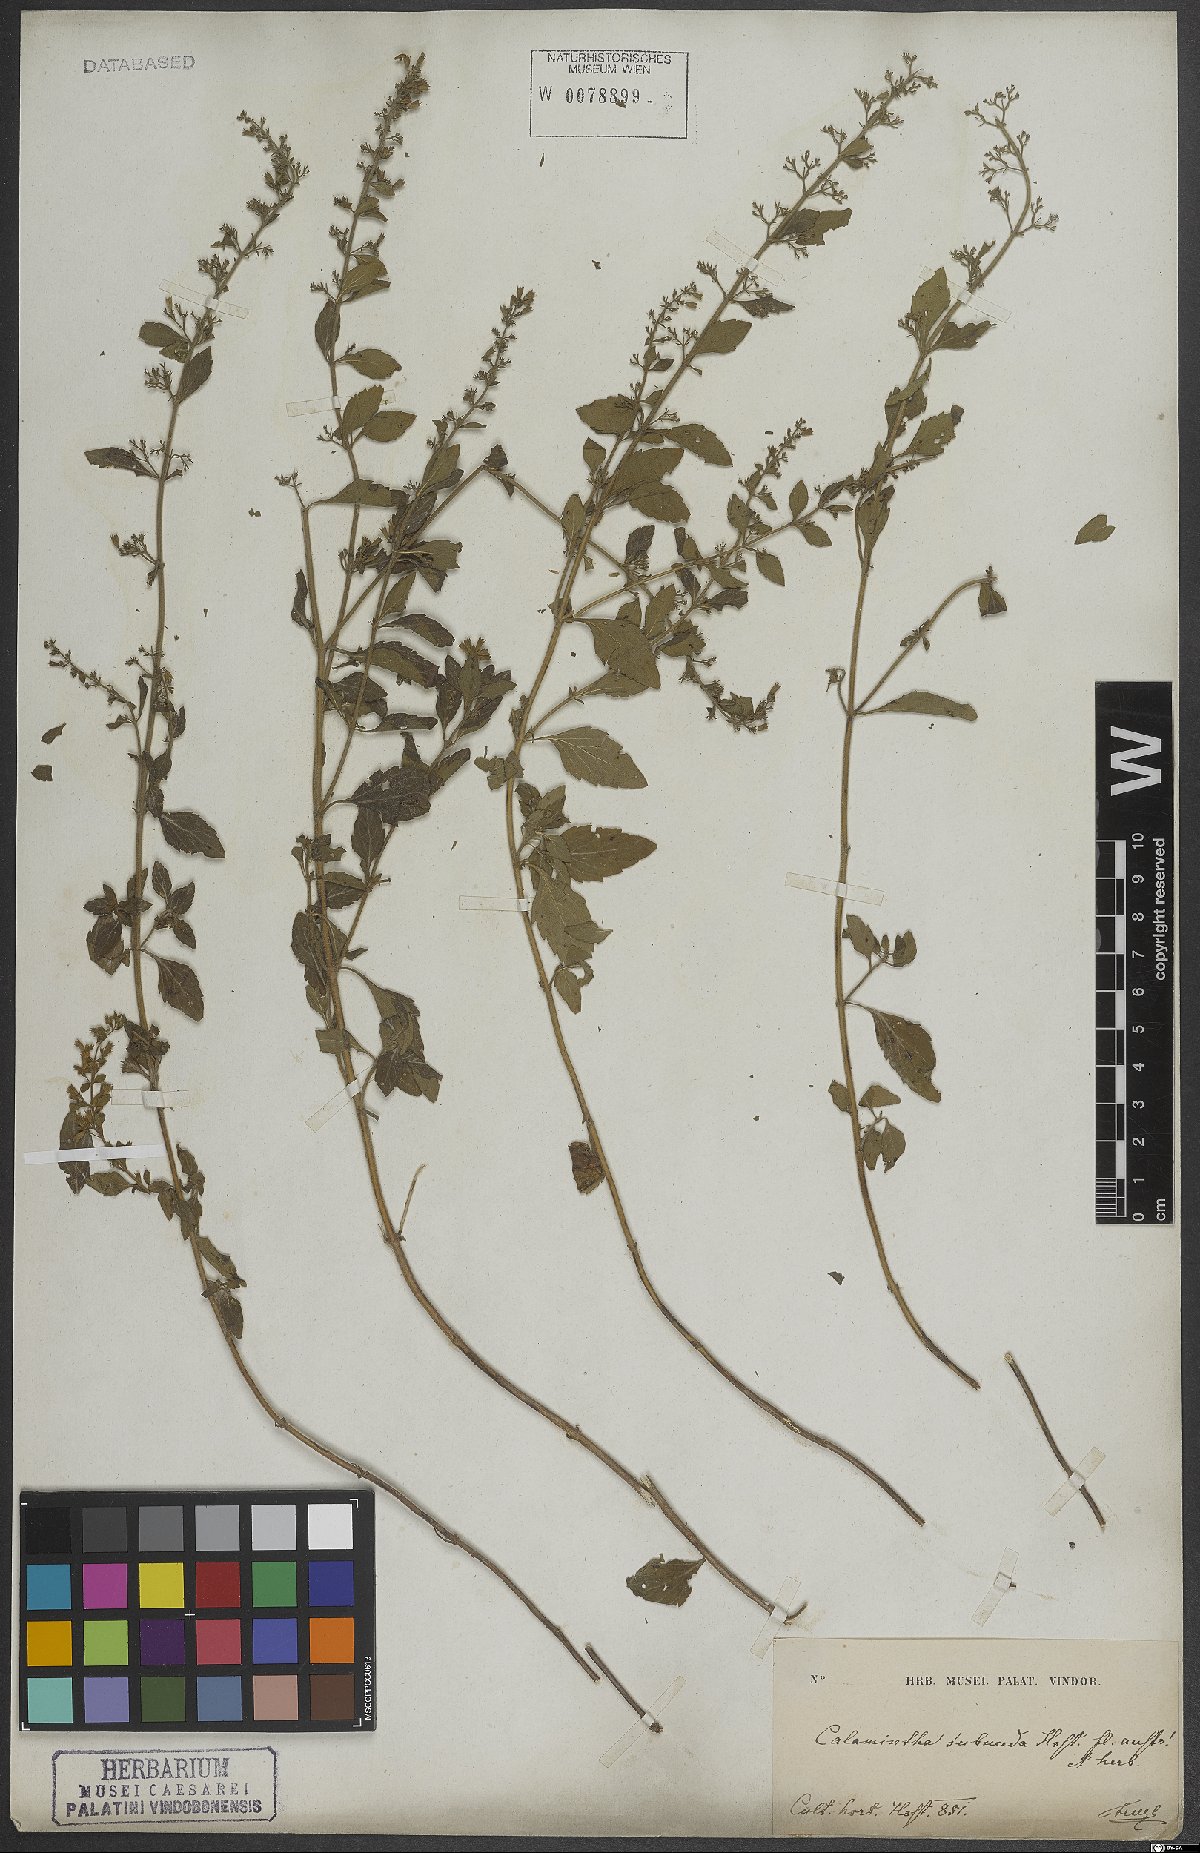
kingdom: Plantae
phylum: Tracheophyta
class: Magnoliopsida
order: Lamiales
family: Lamiaceae
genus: Clinopodium
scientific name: Clinopodium nepeta
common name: Lesser calamint
